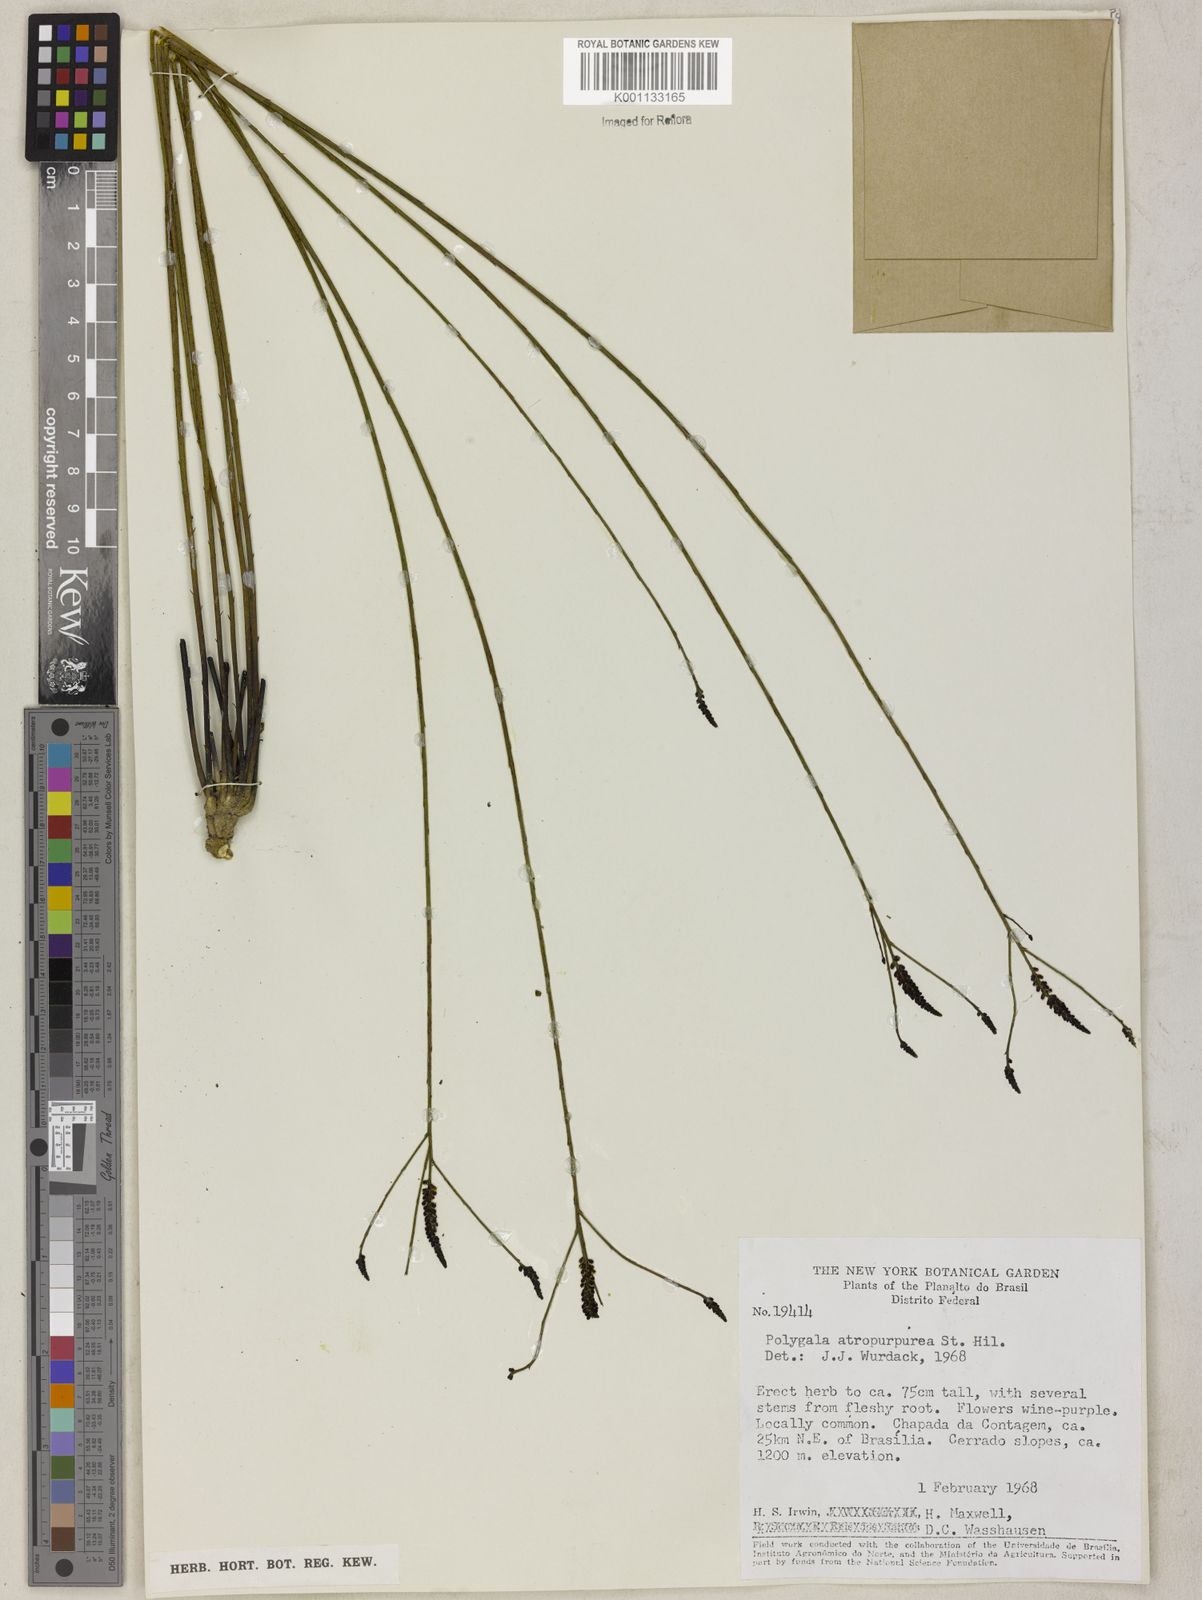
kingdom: Plantae
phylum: Tracheophyta
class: Magnoliopsida
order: Fabales
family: Polygalaceae
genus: Polygala
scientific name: Polygala atropurpurea
